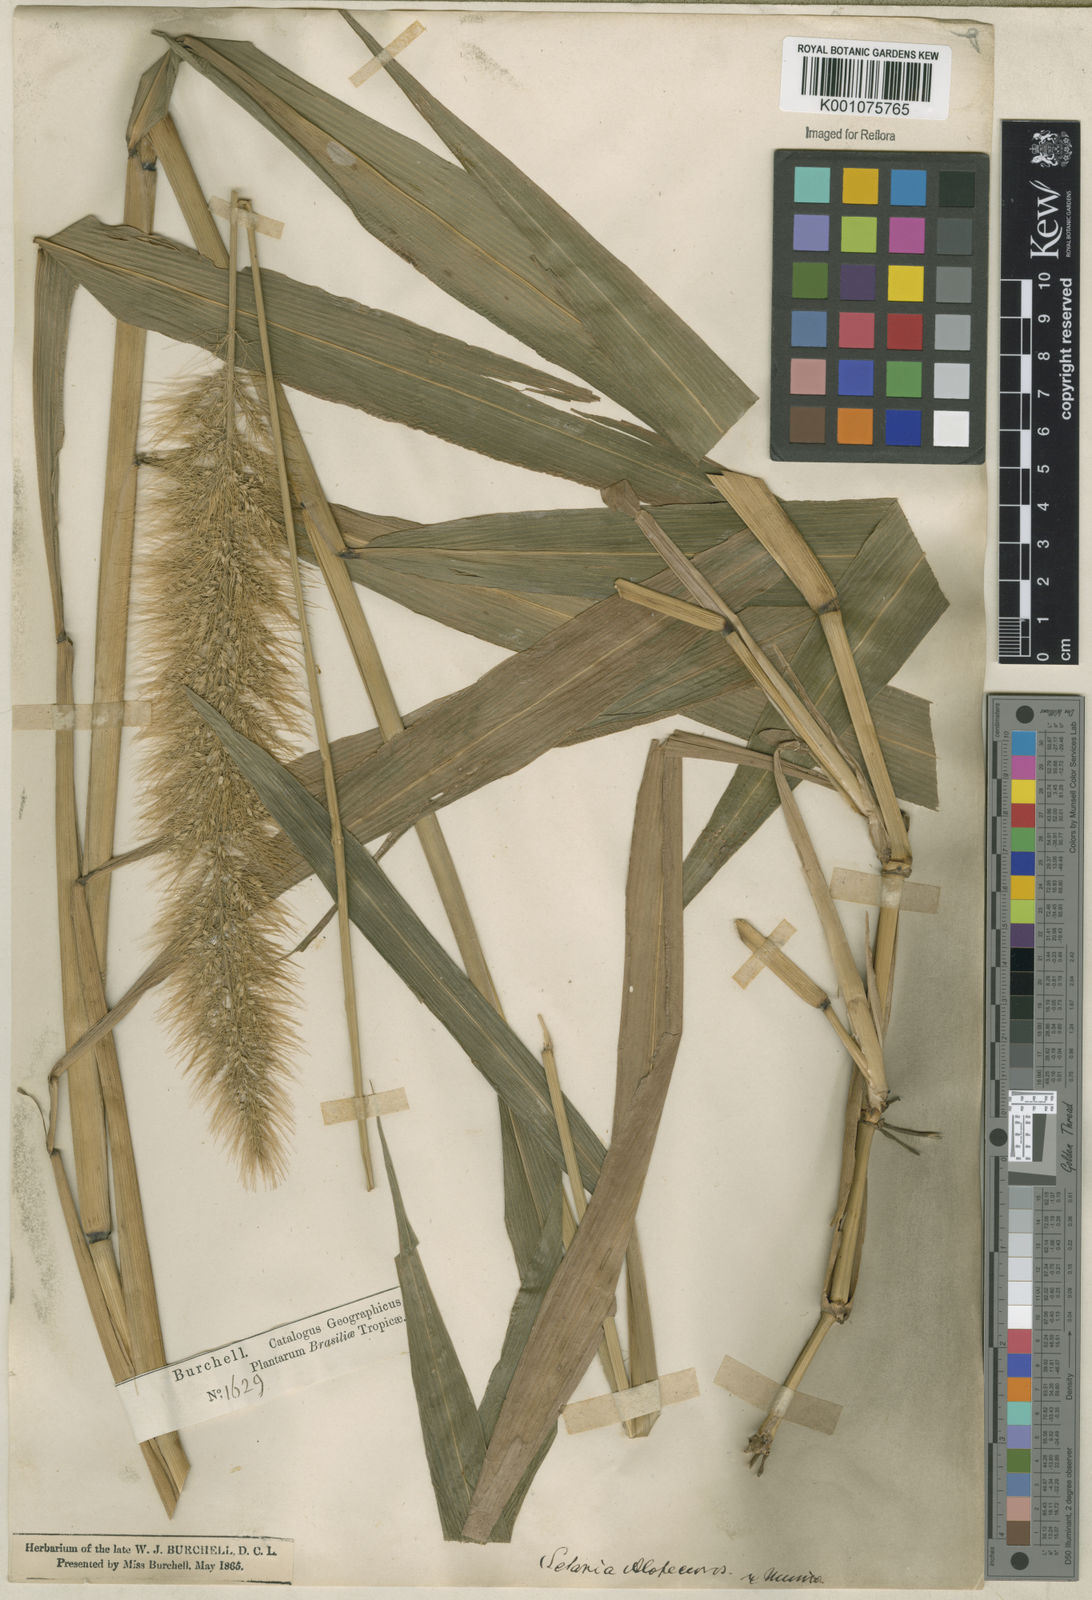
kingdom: Plantae
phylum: Tracheophyta
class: Liliopsida
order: Poales
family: Poaceae
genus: Setaria
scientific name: Setaria vulpiseta
